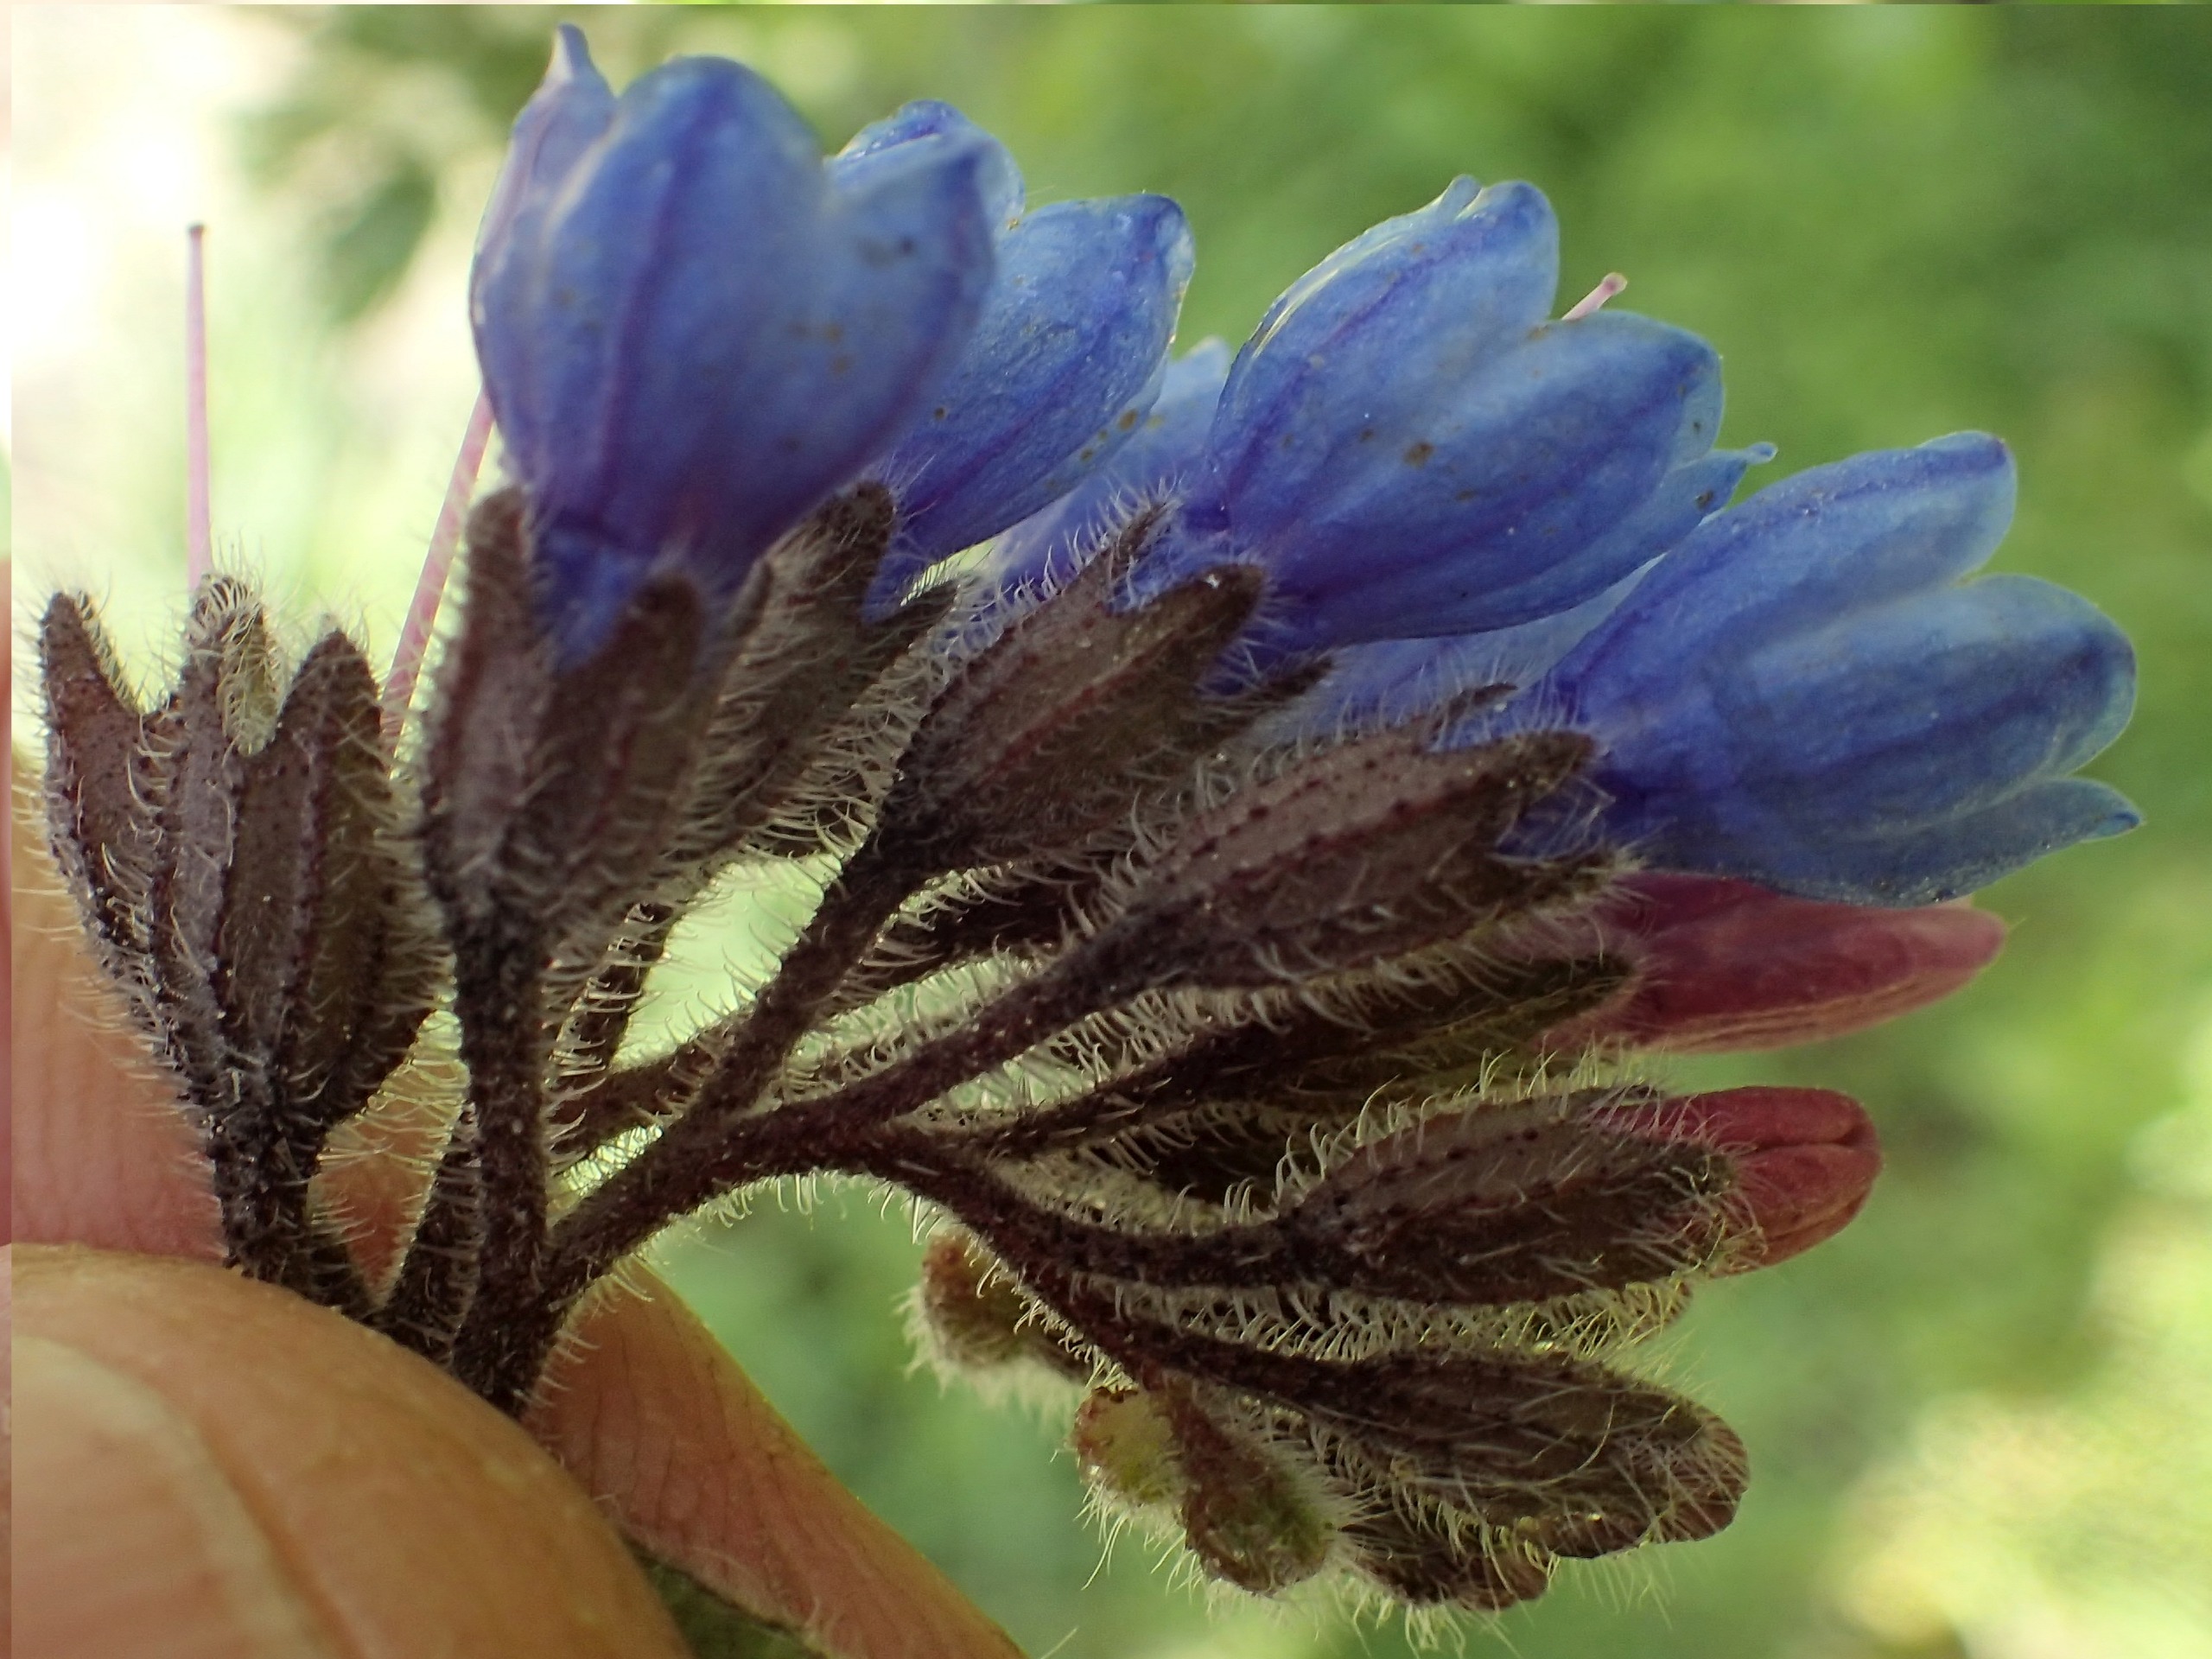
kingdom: Plantae
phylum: Tracheophyta
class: Magnoliopsida
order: Boraginales
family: Boraginaceae
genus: Symphytum
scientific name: Symphytum caucasicum
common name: Kaukasisk kulsukker
